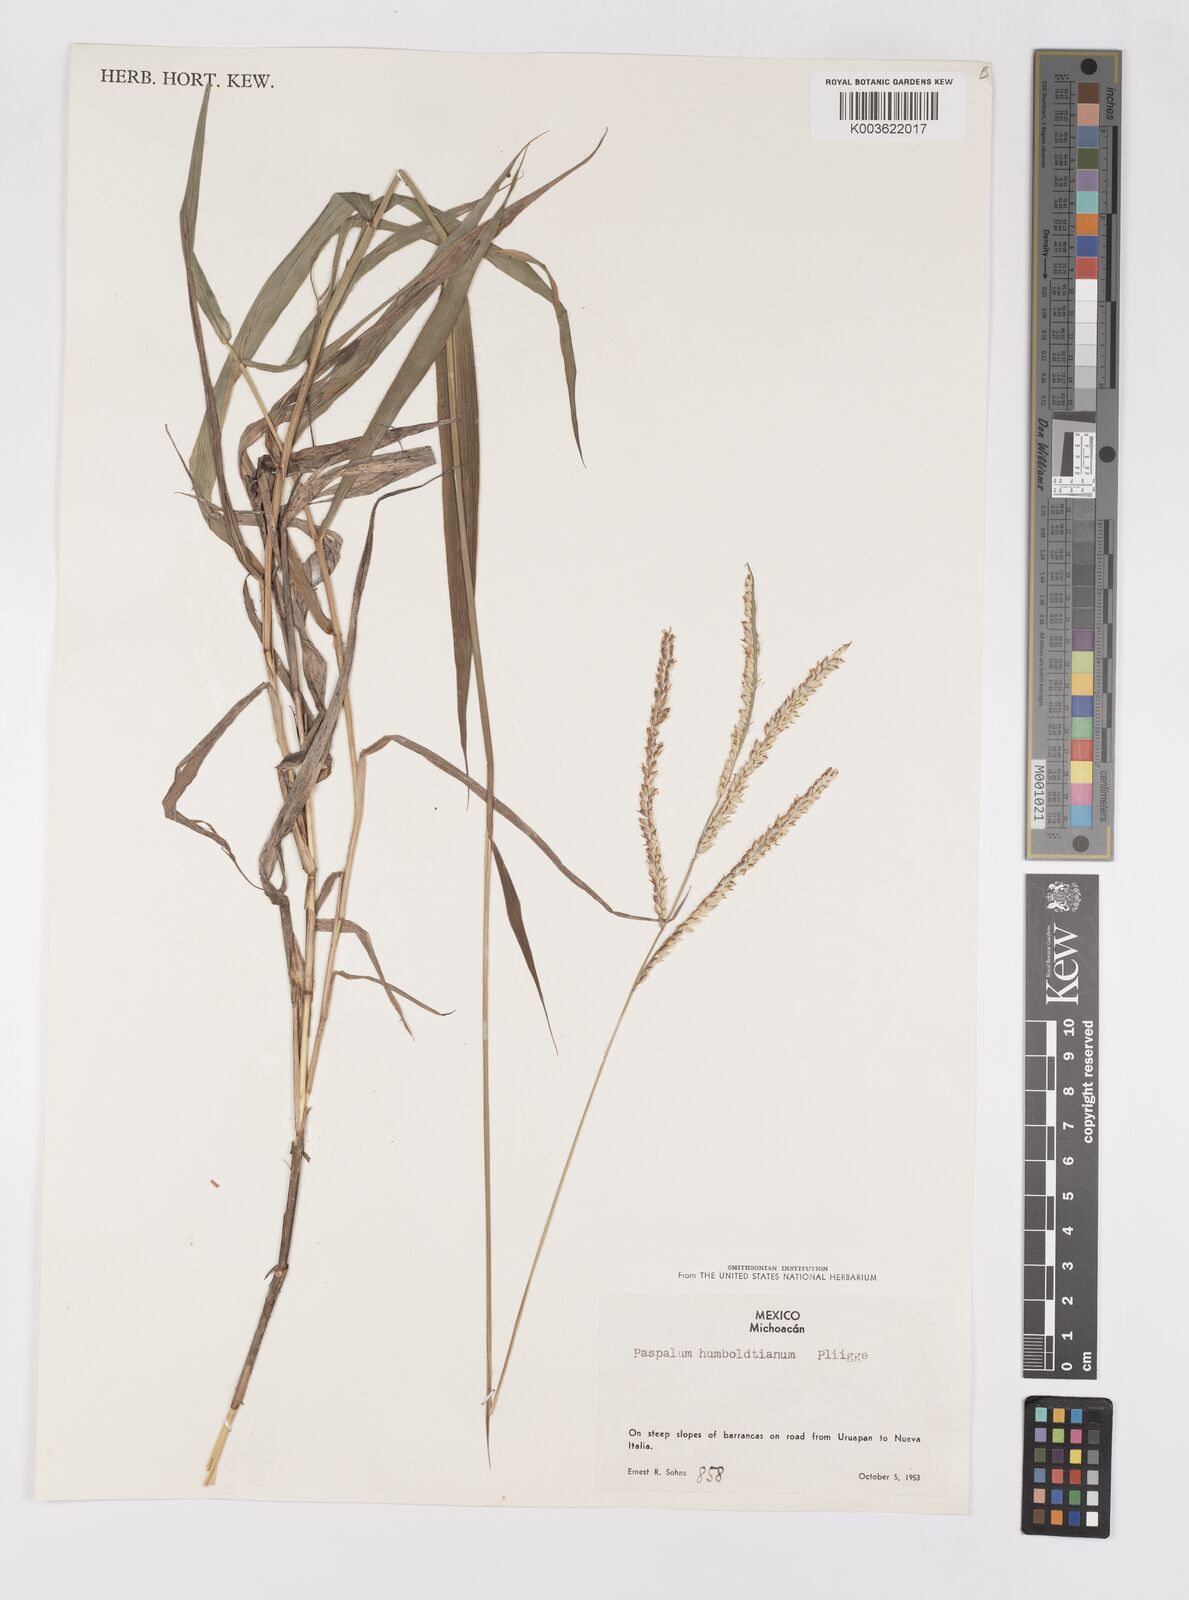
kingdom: Plantae
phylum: Tracheophyta
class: Liliopsida
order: Poales
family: Poaceae
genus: Paspalum
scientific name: Paspalum humboldtianum
